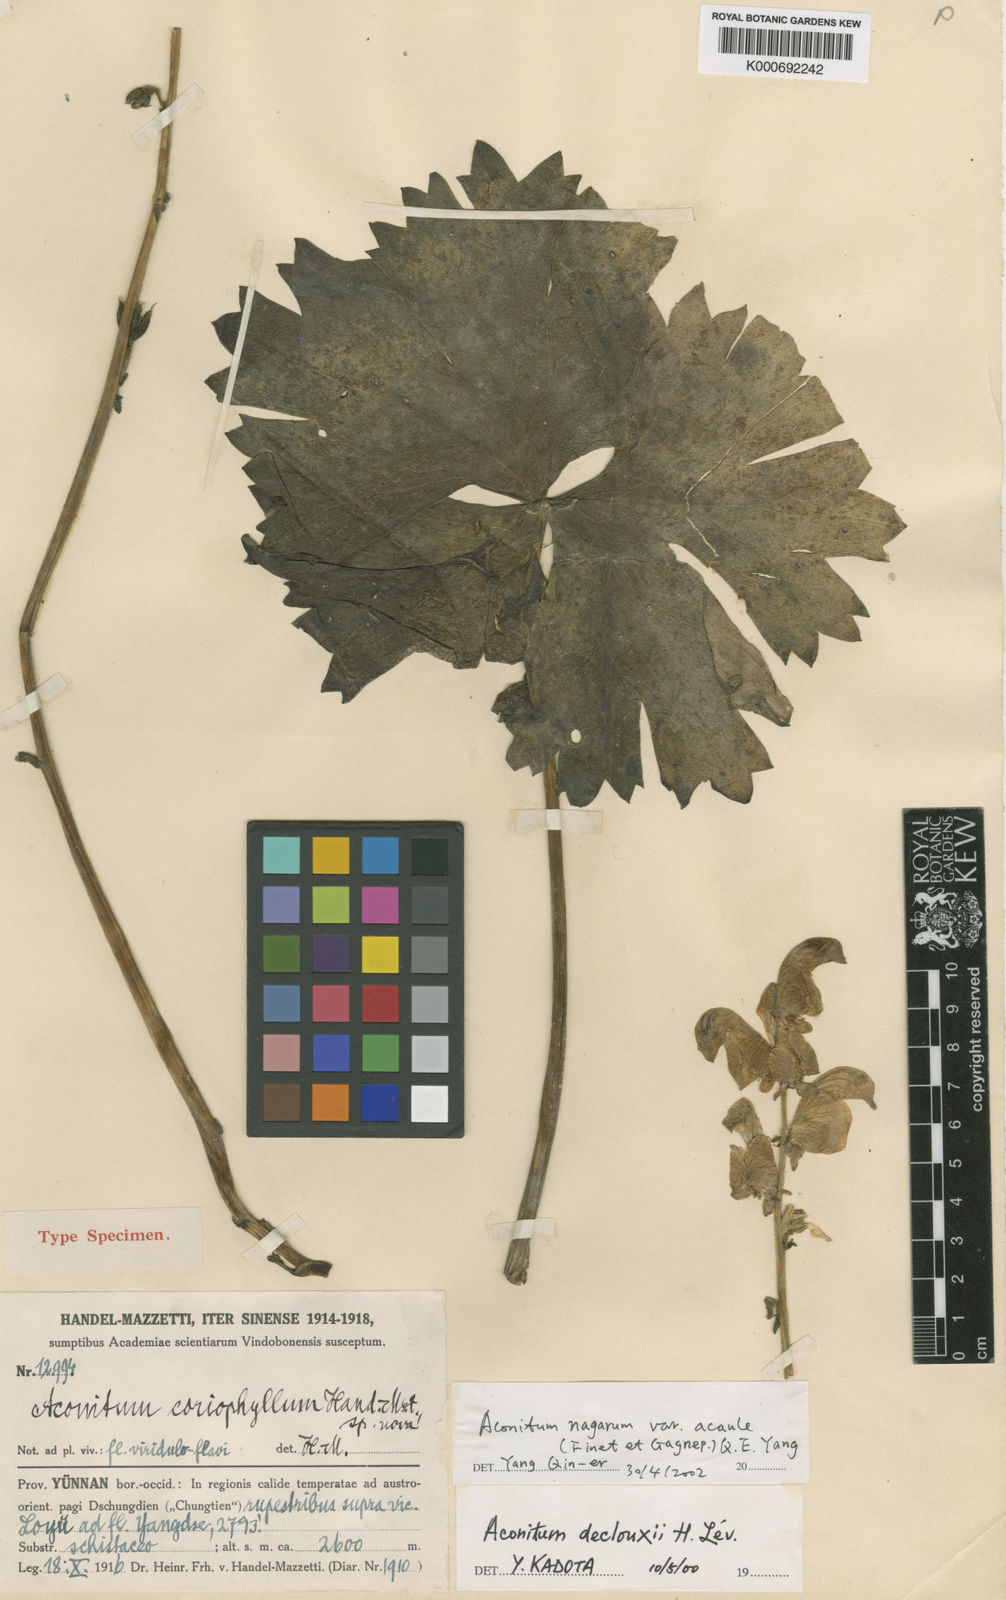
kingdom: Plantae
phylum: Tracheophyta
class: Magnoliopsida
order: Ranunculales
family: Ranunculaceae
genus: Aconitum
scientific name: Aconitum duclouxii
